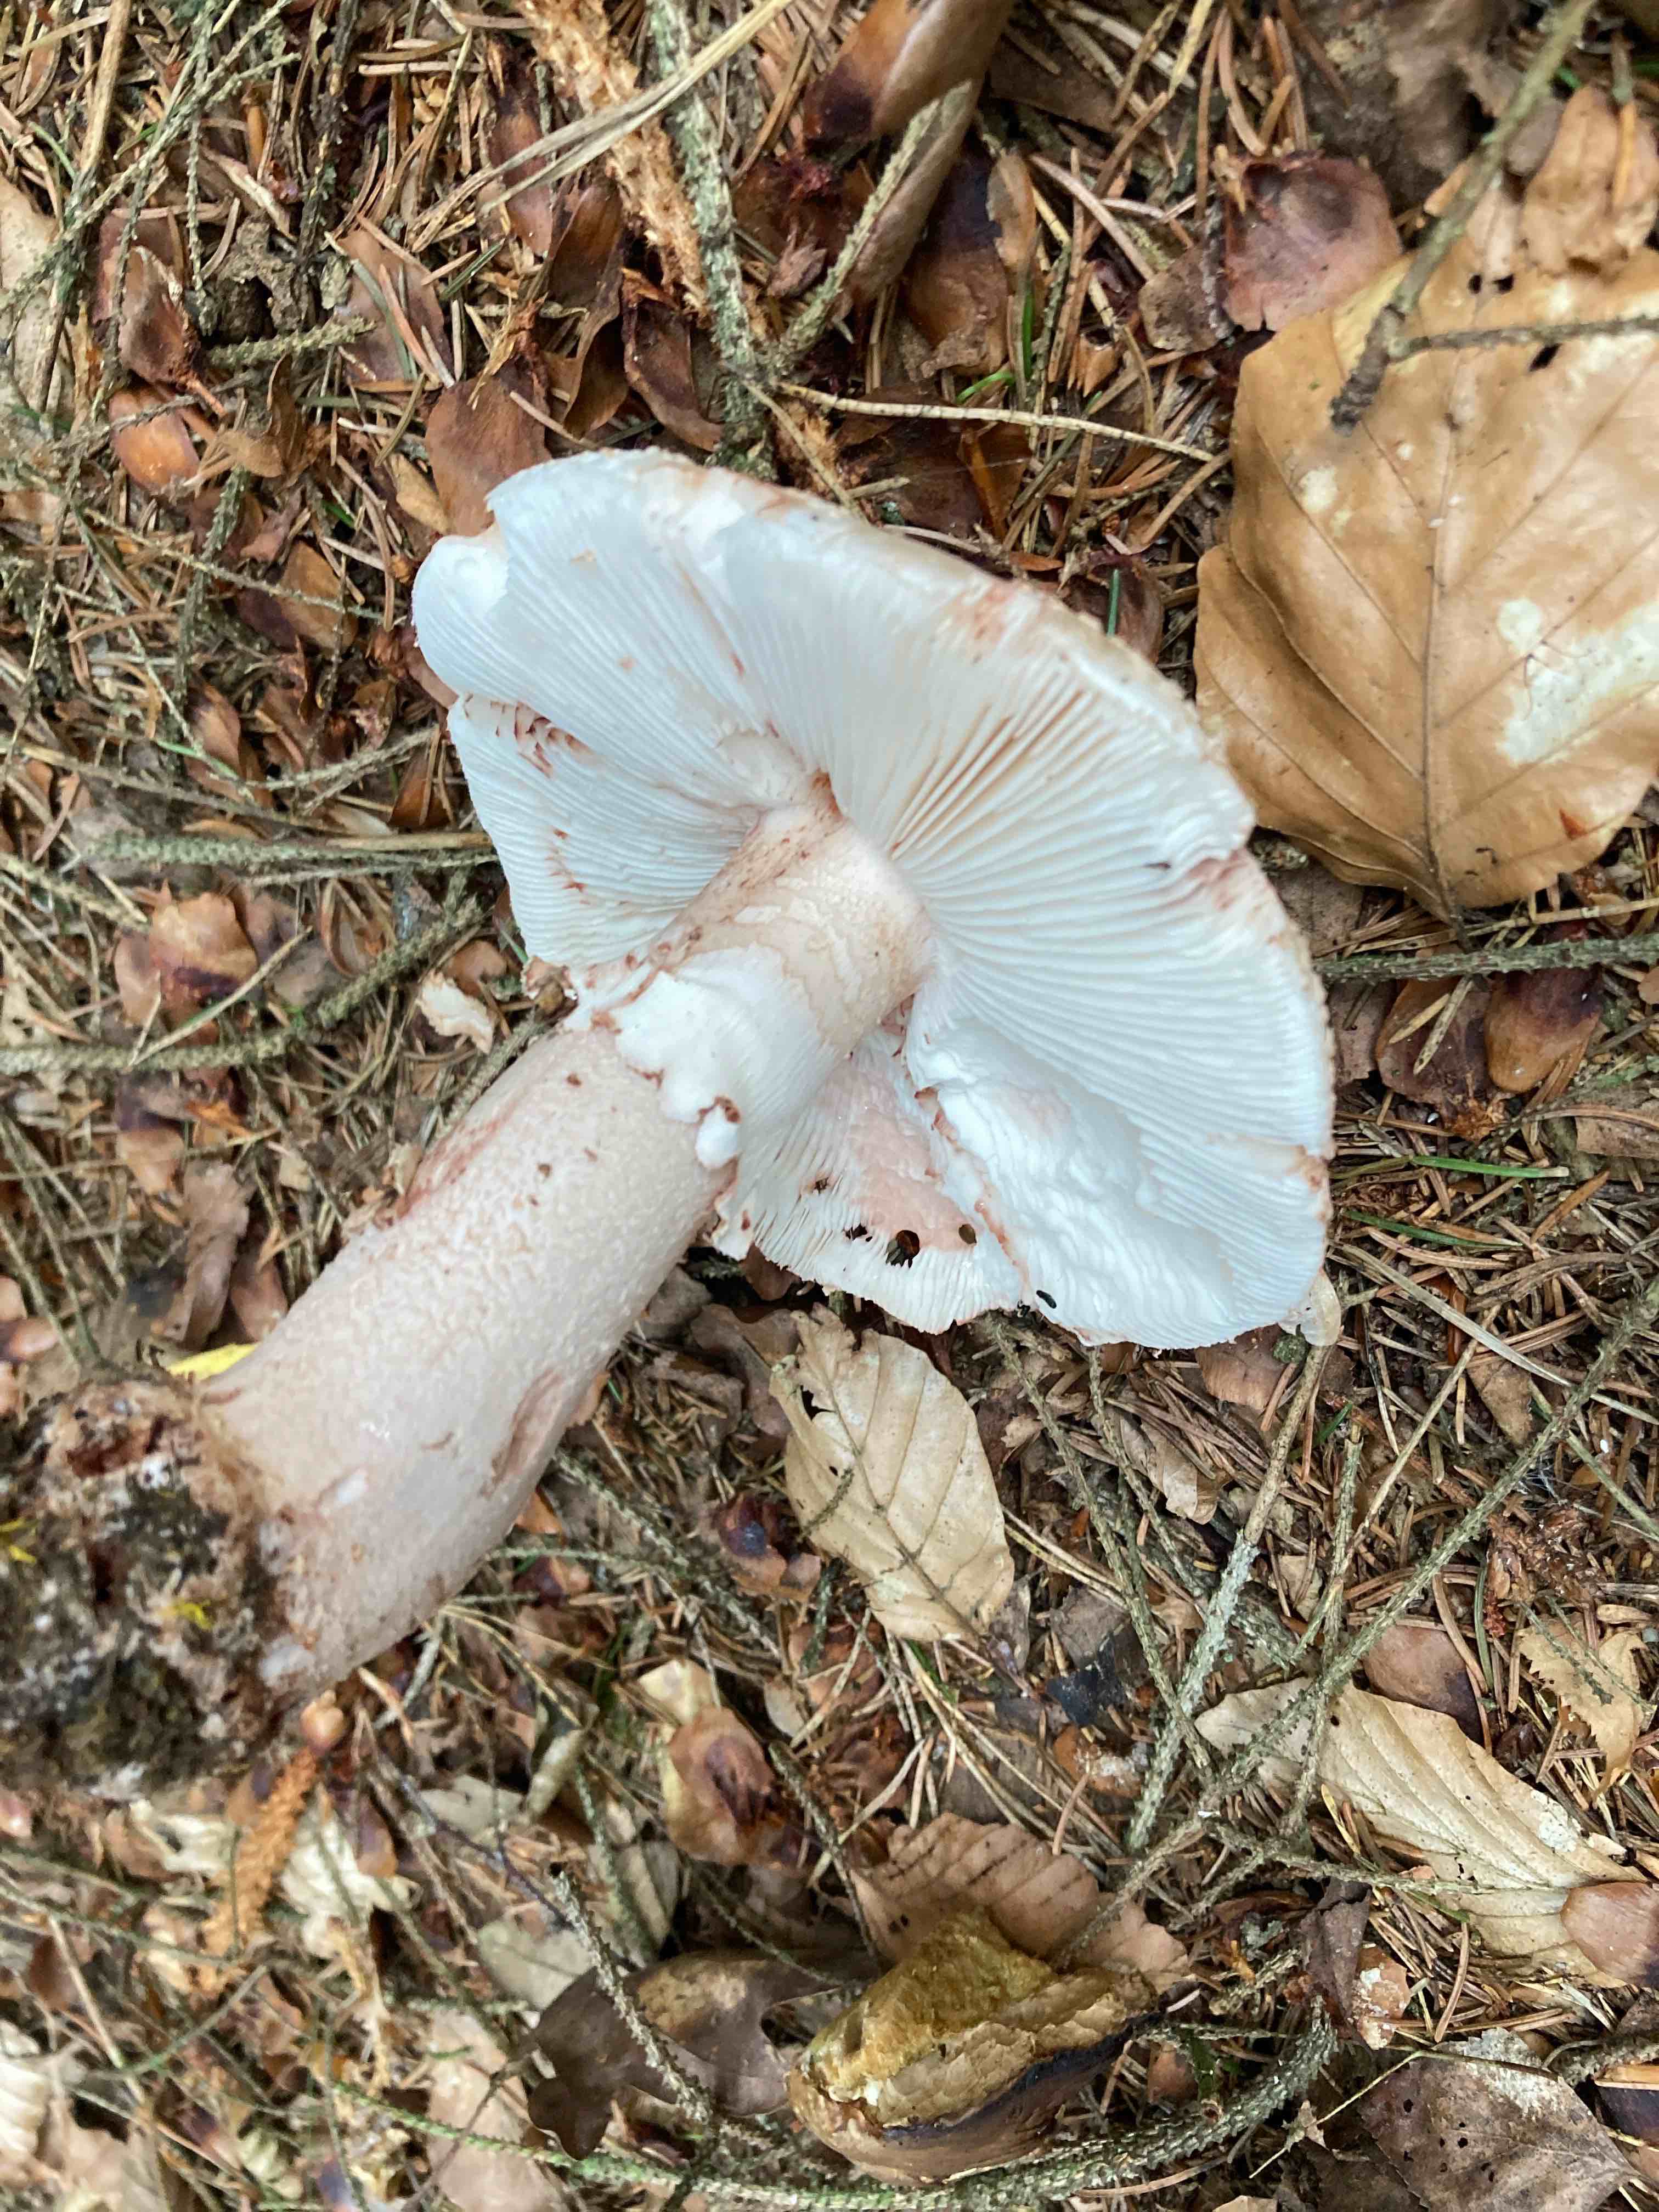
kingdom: Fungi
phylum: Basidiomycota
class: Agaricomycetes
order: Agaricales
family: Amanitaceae
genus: Amanita
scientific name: Amanita rubescens
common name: rødmende fluesvamp
